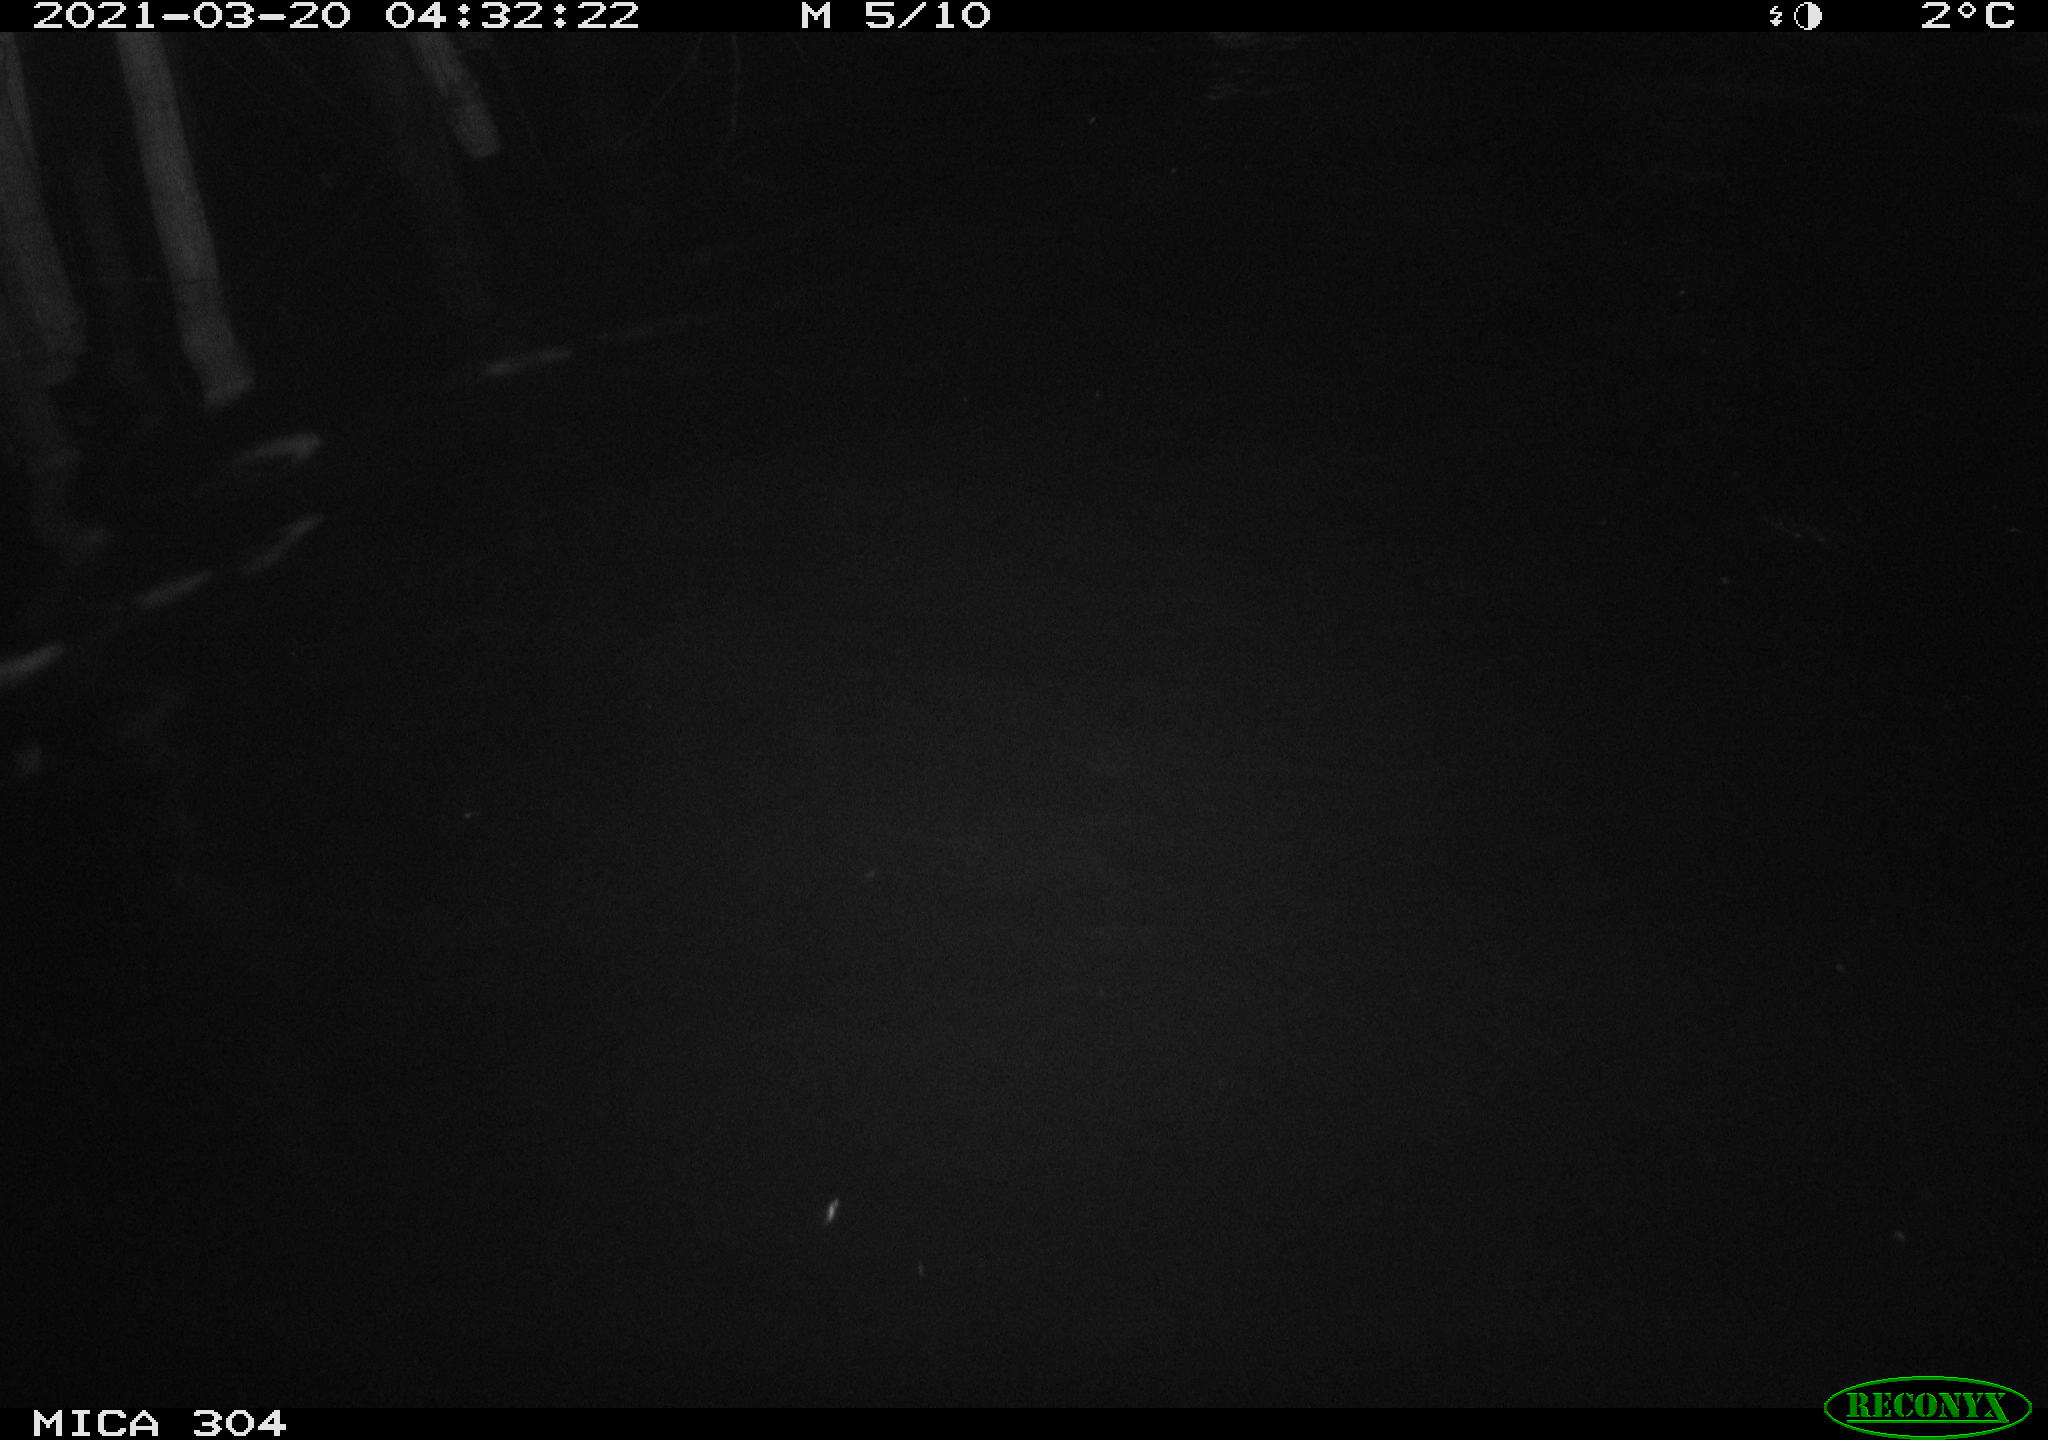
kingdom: Animalia
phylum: Chordata
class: Aves
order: Anseriformes
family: Anatidae
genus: Anas
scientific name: Anas platyrhynchos
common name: Mallard
